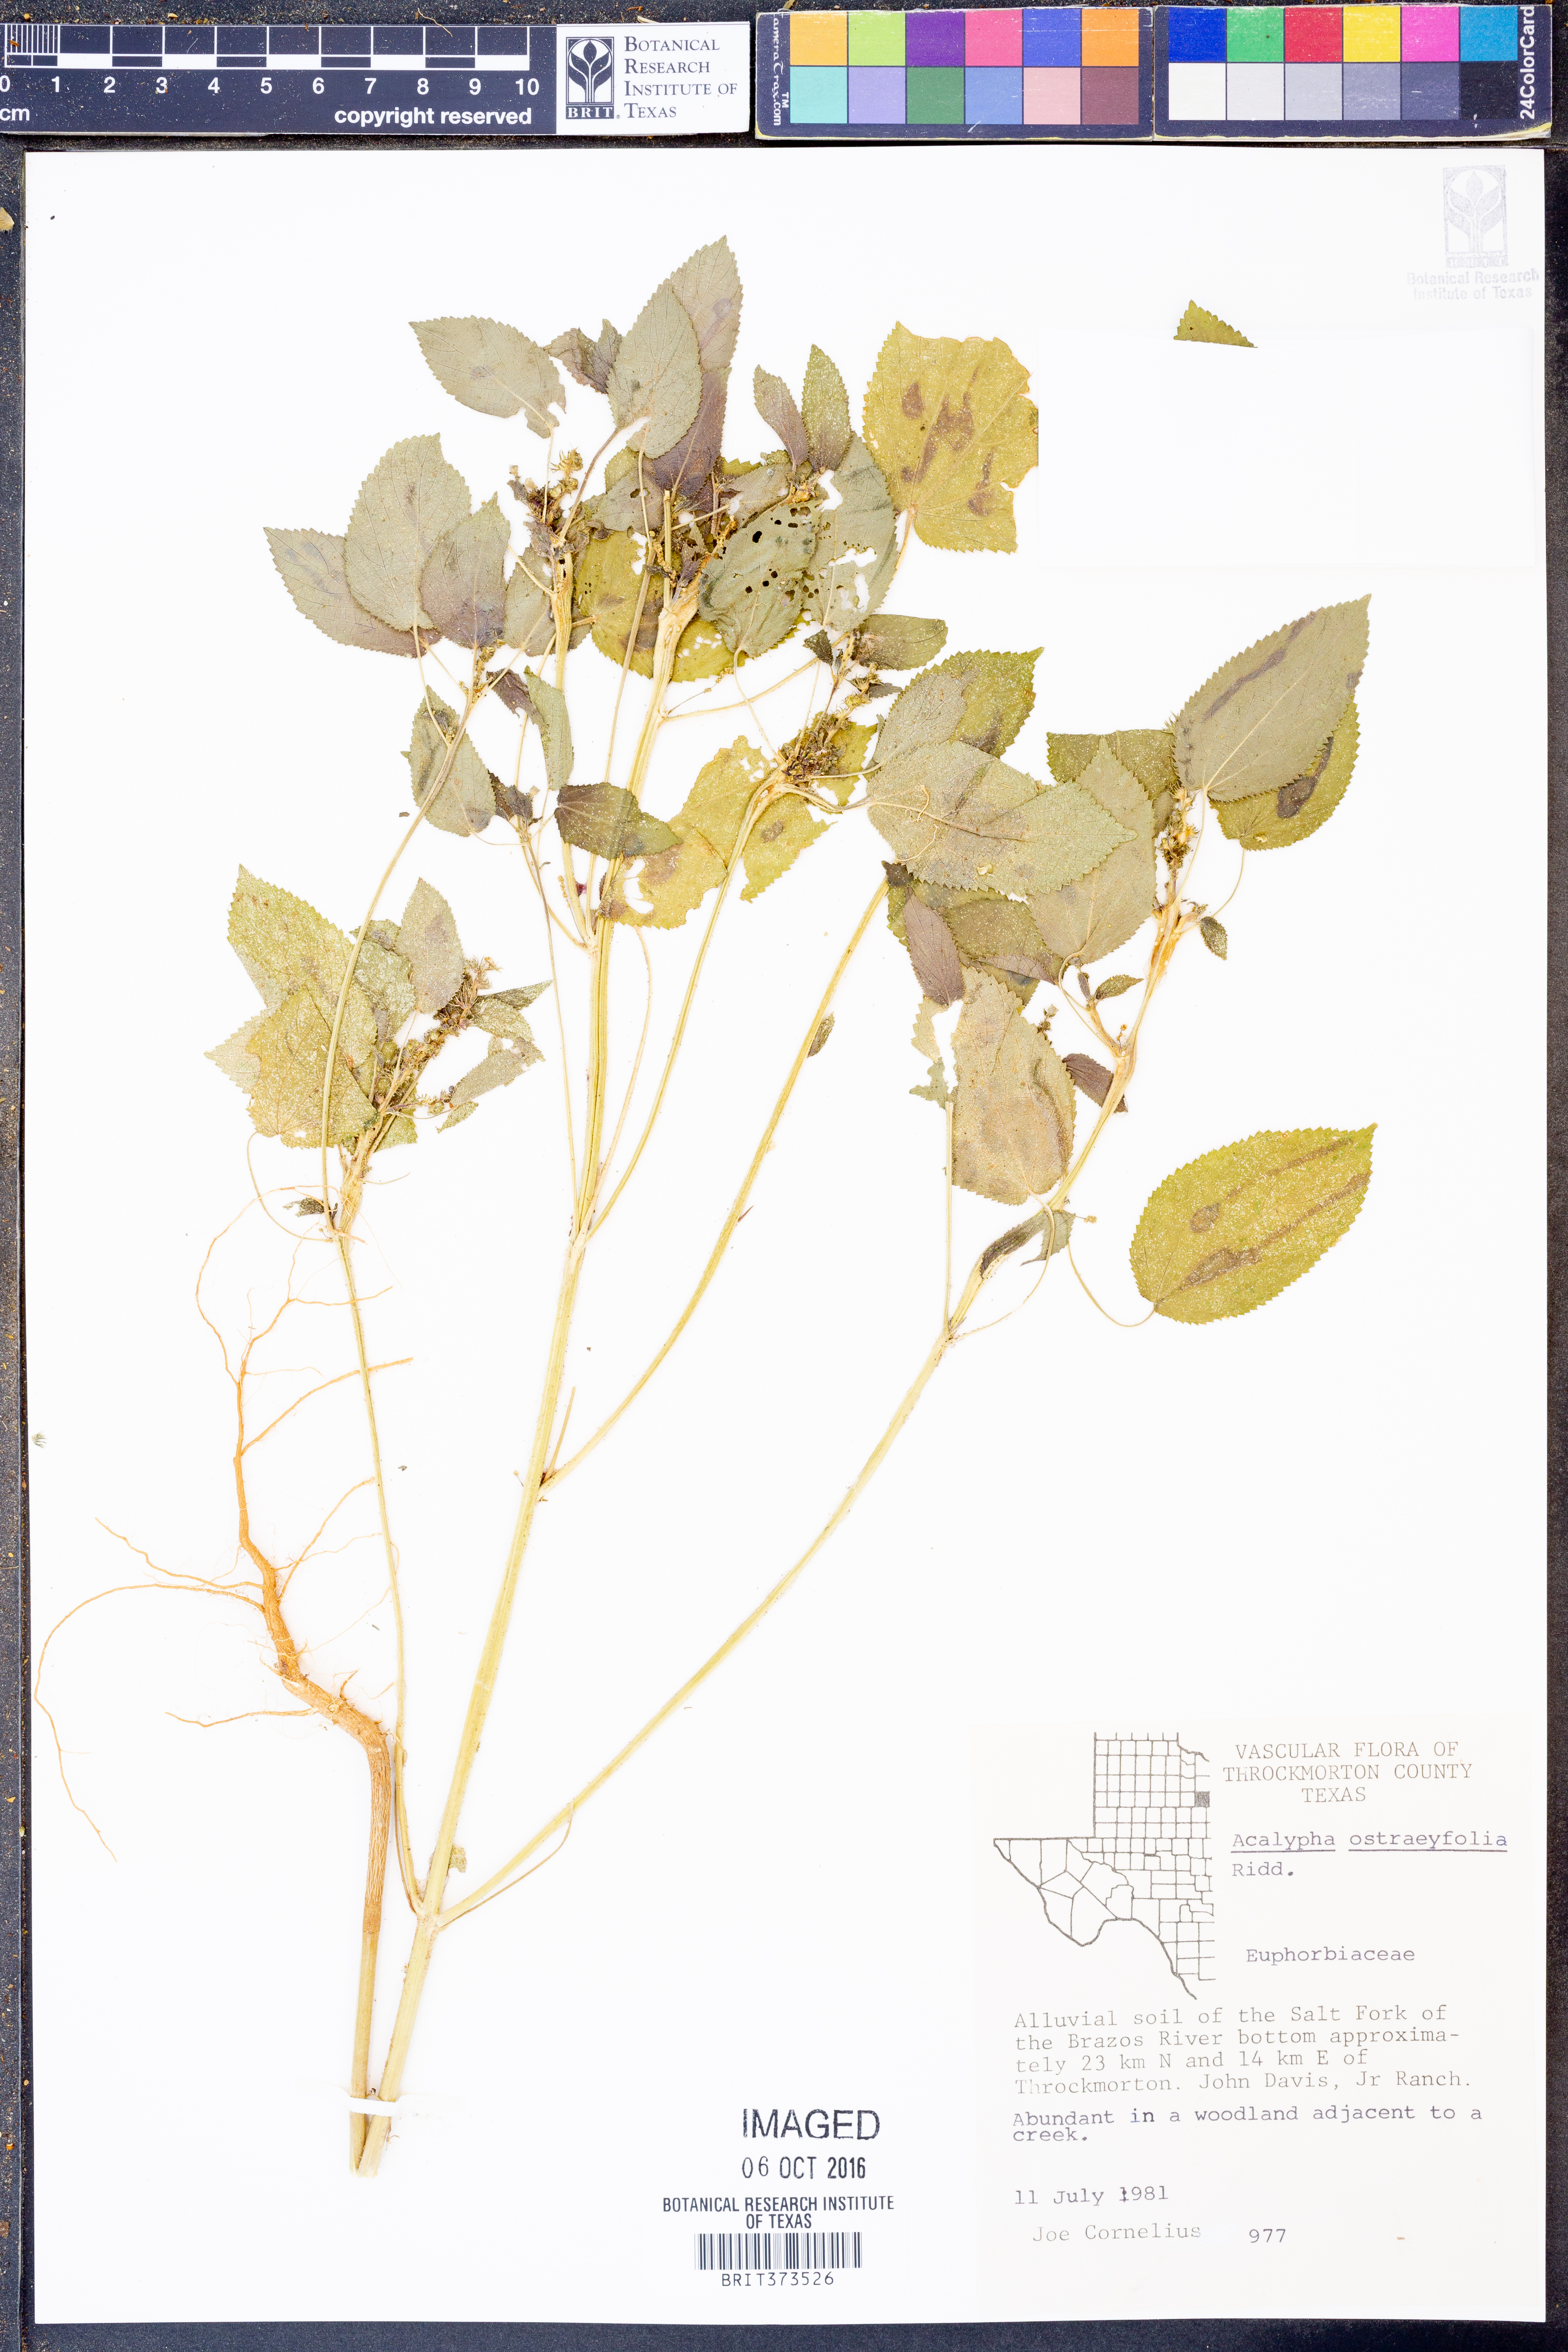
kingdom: Plantae
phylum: Tracheophyta
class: Magnoliopsida
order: Malpighiales
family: Euphorbiaceae
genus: Acalypha
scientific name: Acalypha ostryifolia
